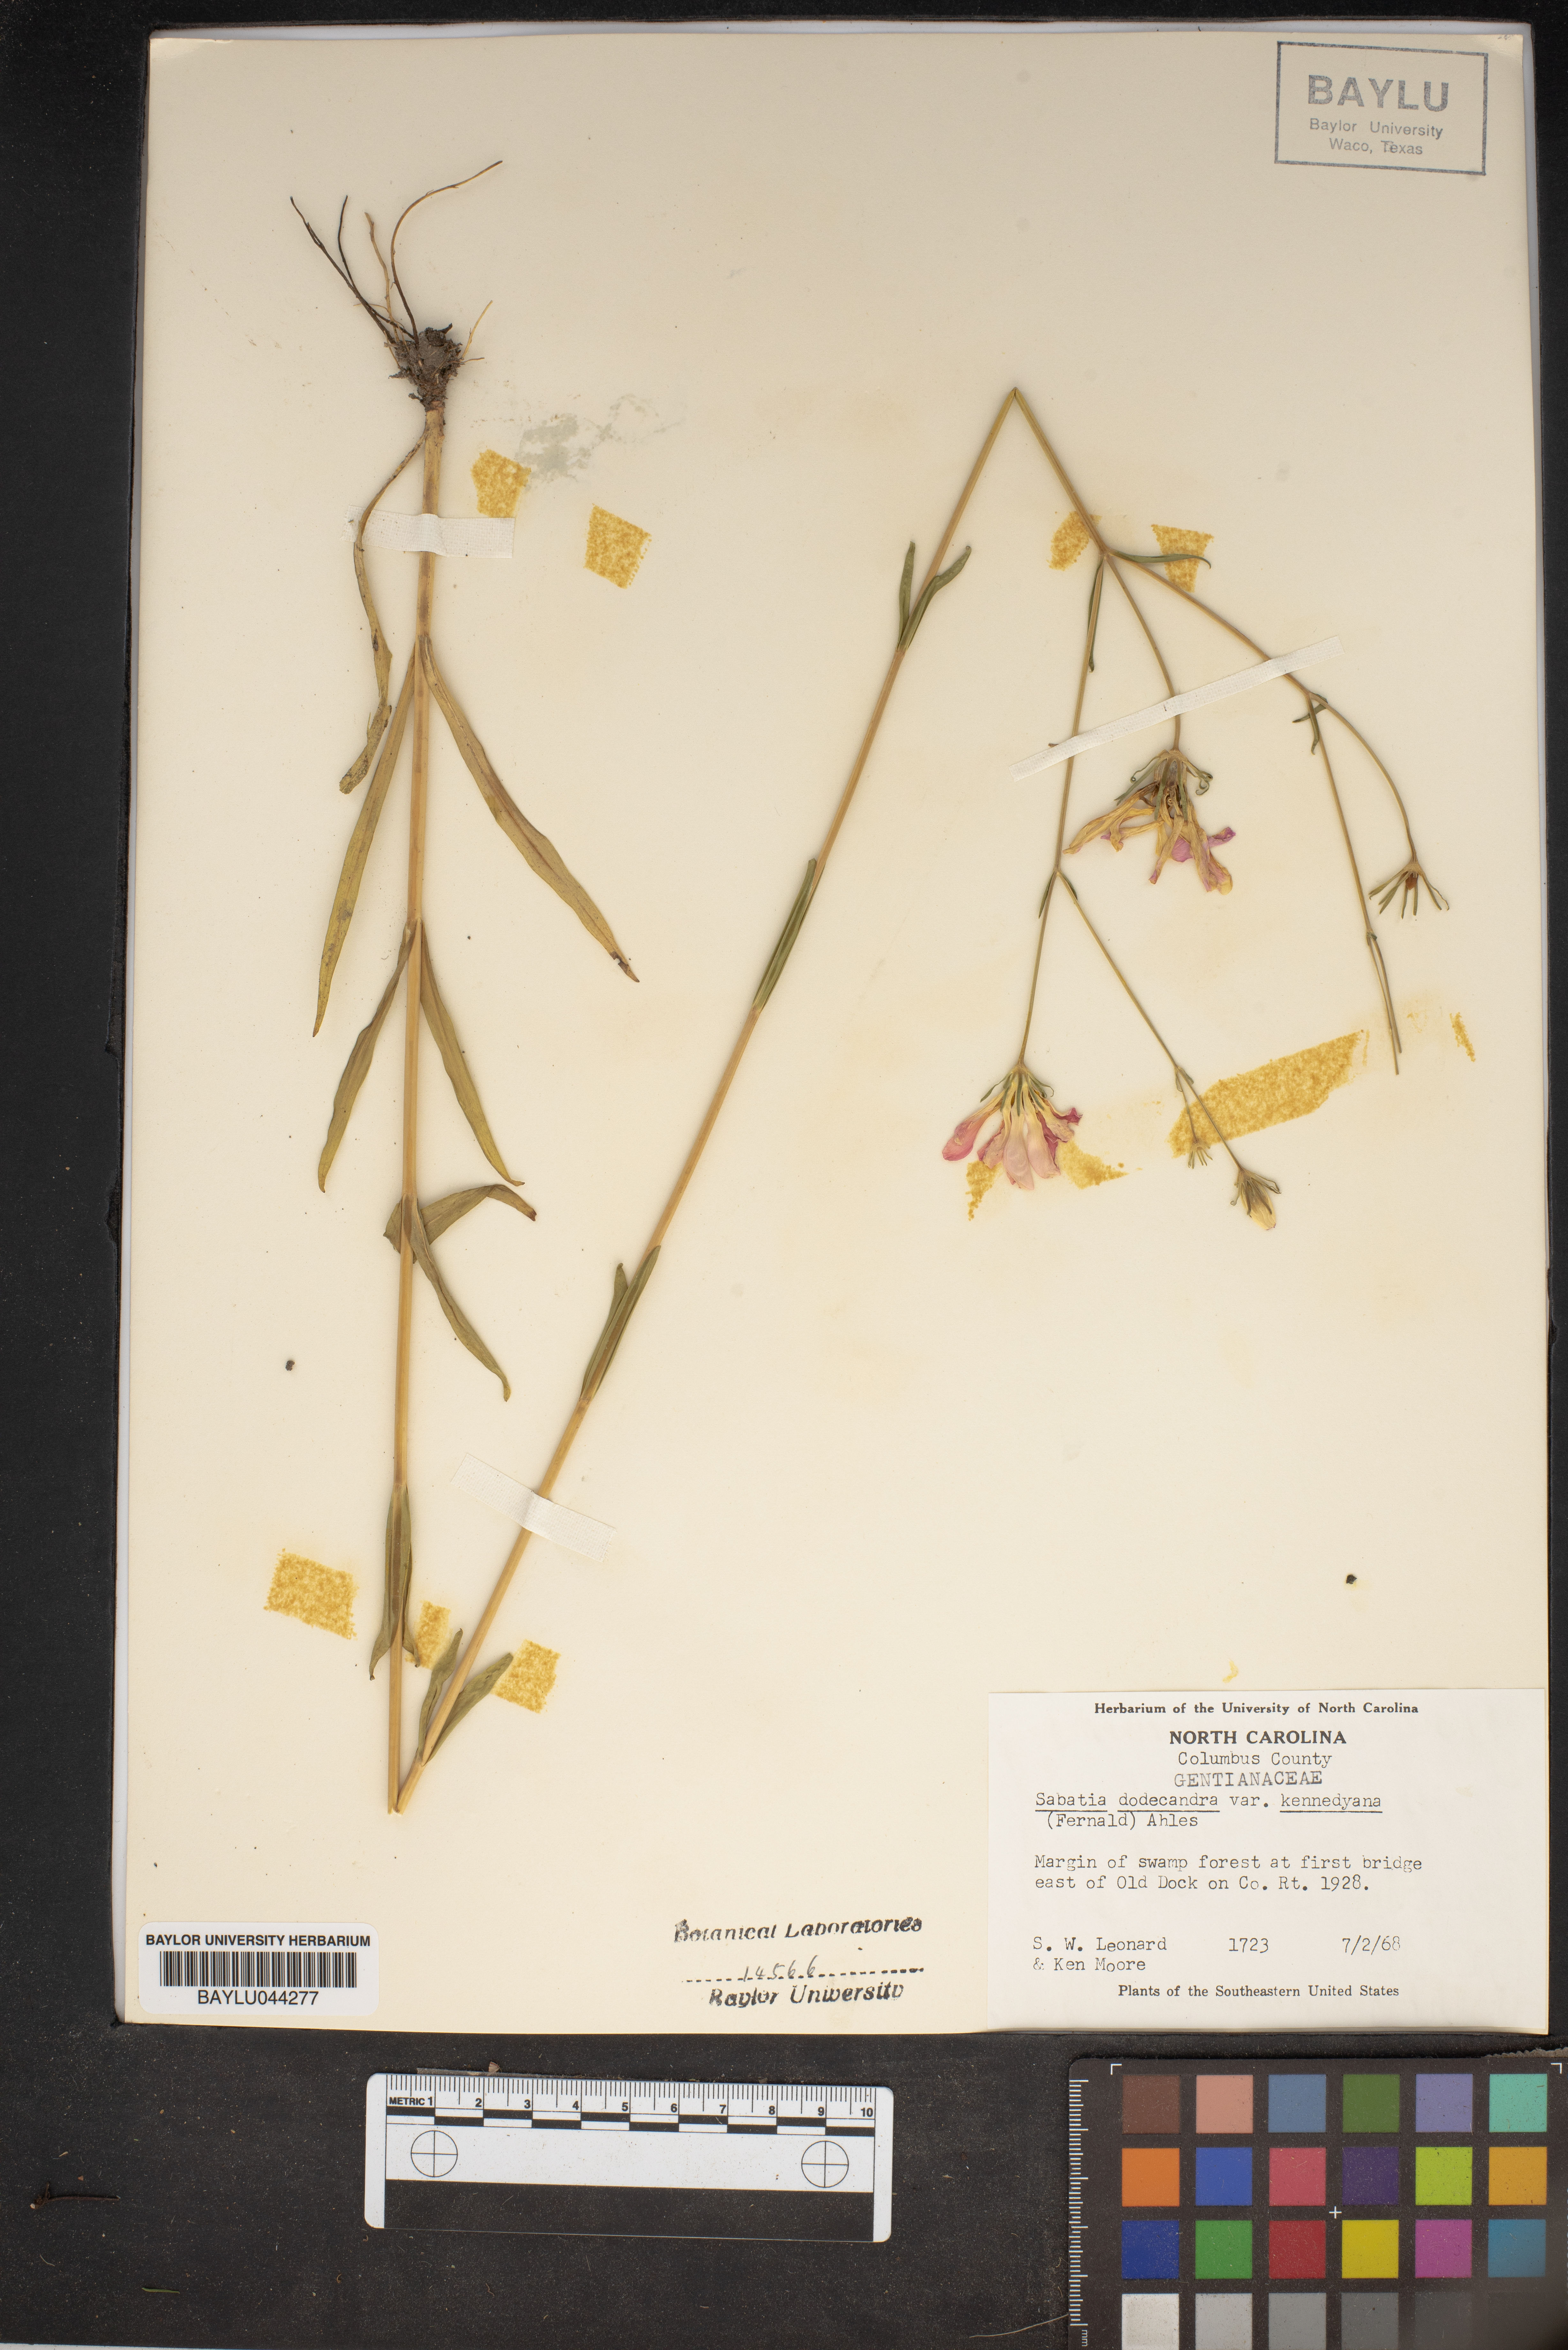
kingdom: Plantae
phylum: Tracheophyta
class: Magnoliopsida
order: Gentianales
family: Gentianaceae
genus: Sabatia
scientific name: Sabatia kennedyana
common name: Plymouth gentian
